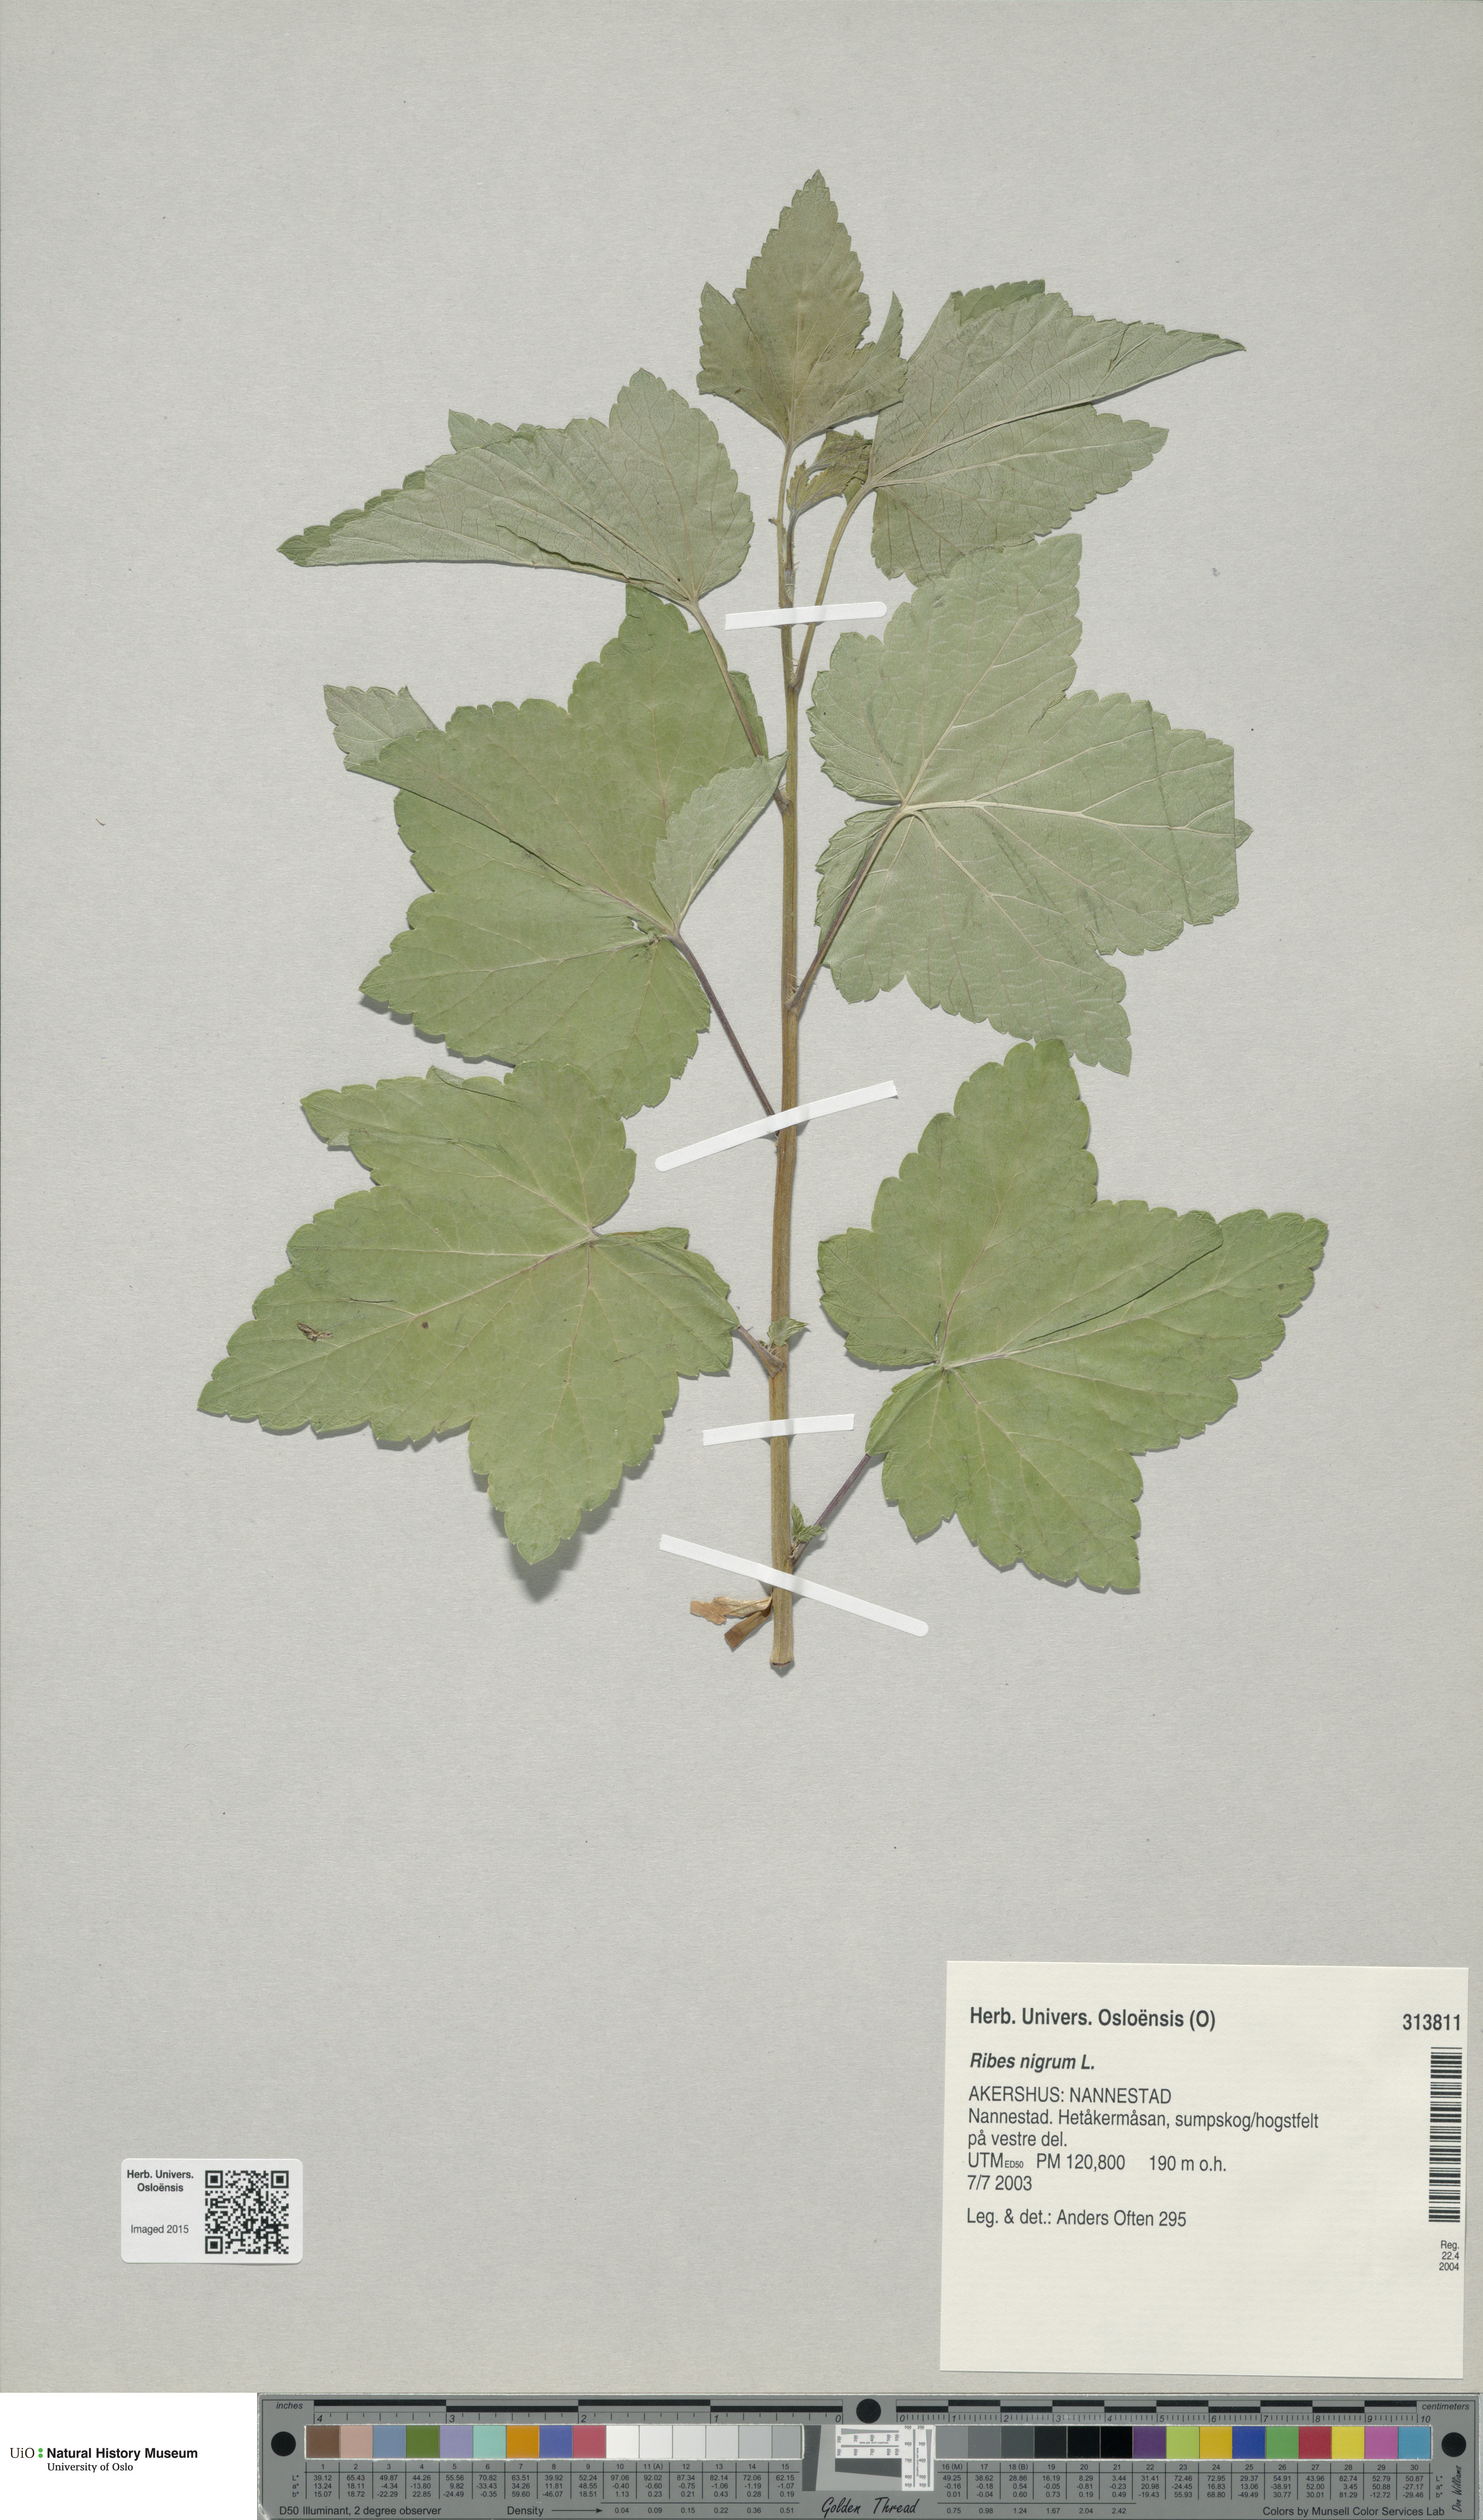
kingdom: Plantae
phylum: Tracheophyta
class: Magnoliopsida
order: Saxifragales
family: Grossulariaceae
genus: Ribes
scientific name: Ribes nigrum
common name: Black currant
